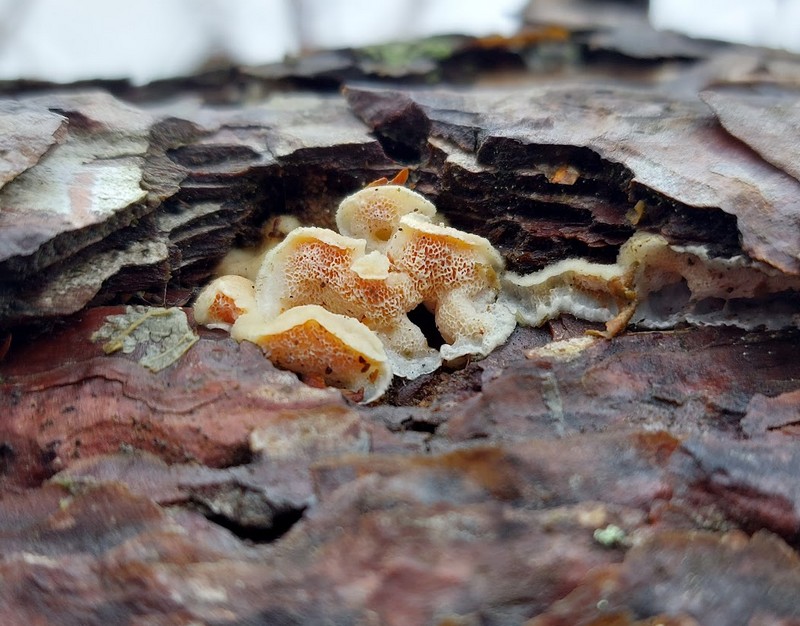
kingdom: Fungi
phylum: Basidiomycota
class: Agaricomycetes
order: Polyporales
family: Incrustoporiaceae
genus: Skeletocutis
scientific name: Skeletocutis amorpha
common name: orange krystalporesvamp
